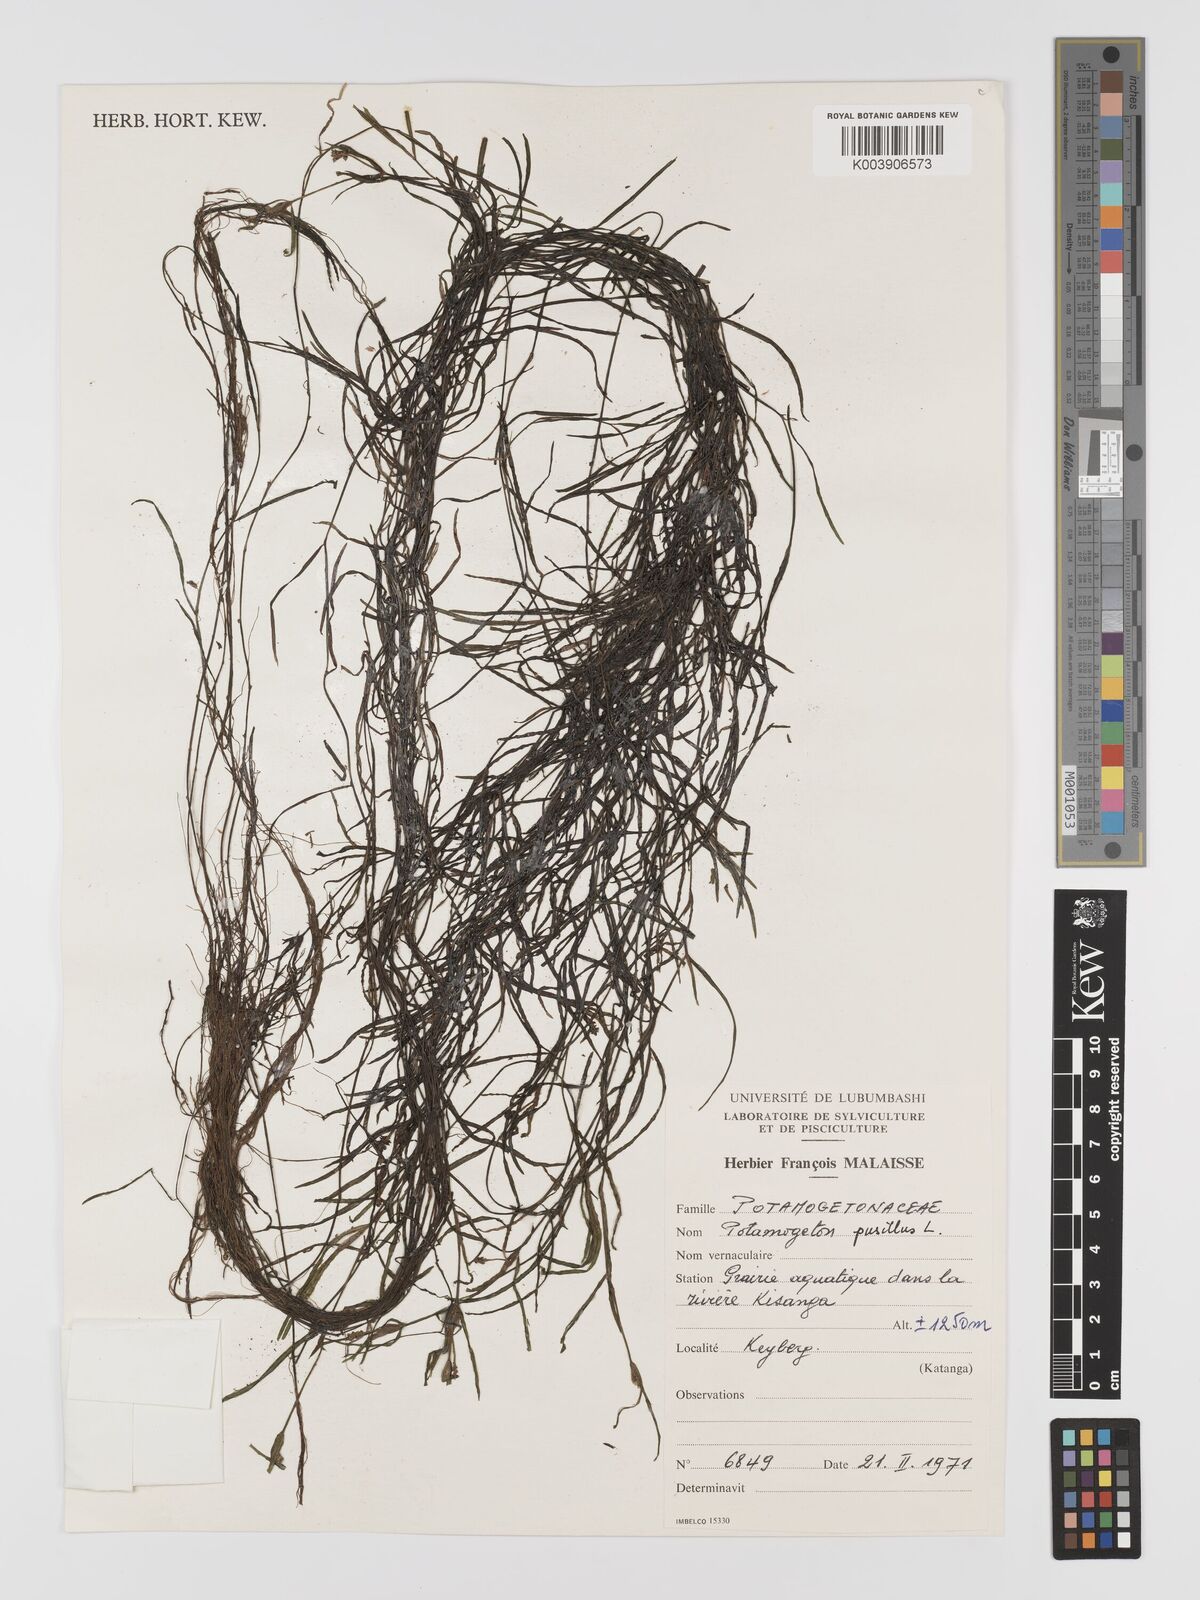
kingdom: Plantae
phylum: Tracheophyta
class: Liliopsida
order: Alismatales
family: Potamogetonaceae
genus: Potamogeton
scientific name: Potamogeton pusillus
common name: Lesser pondweed
